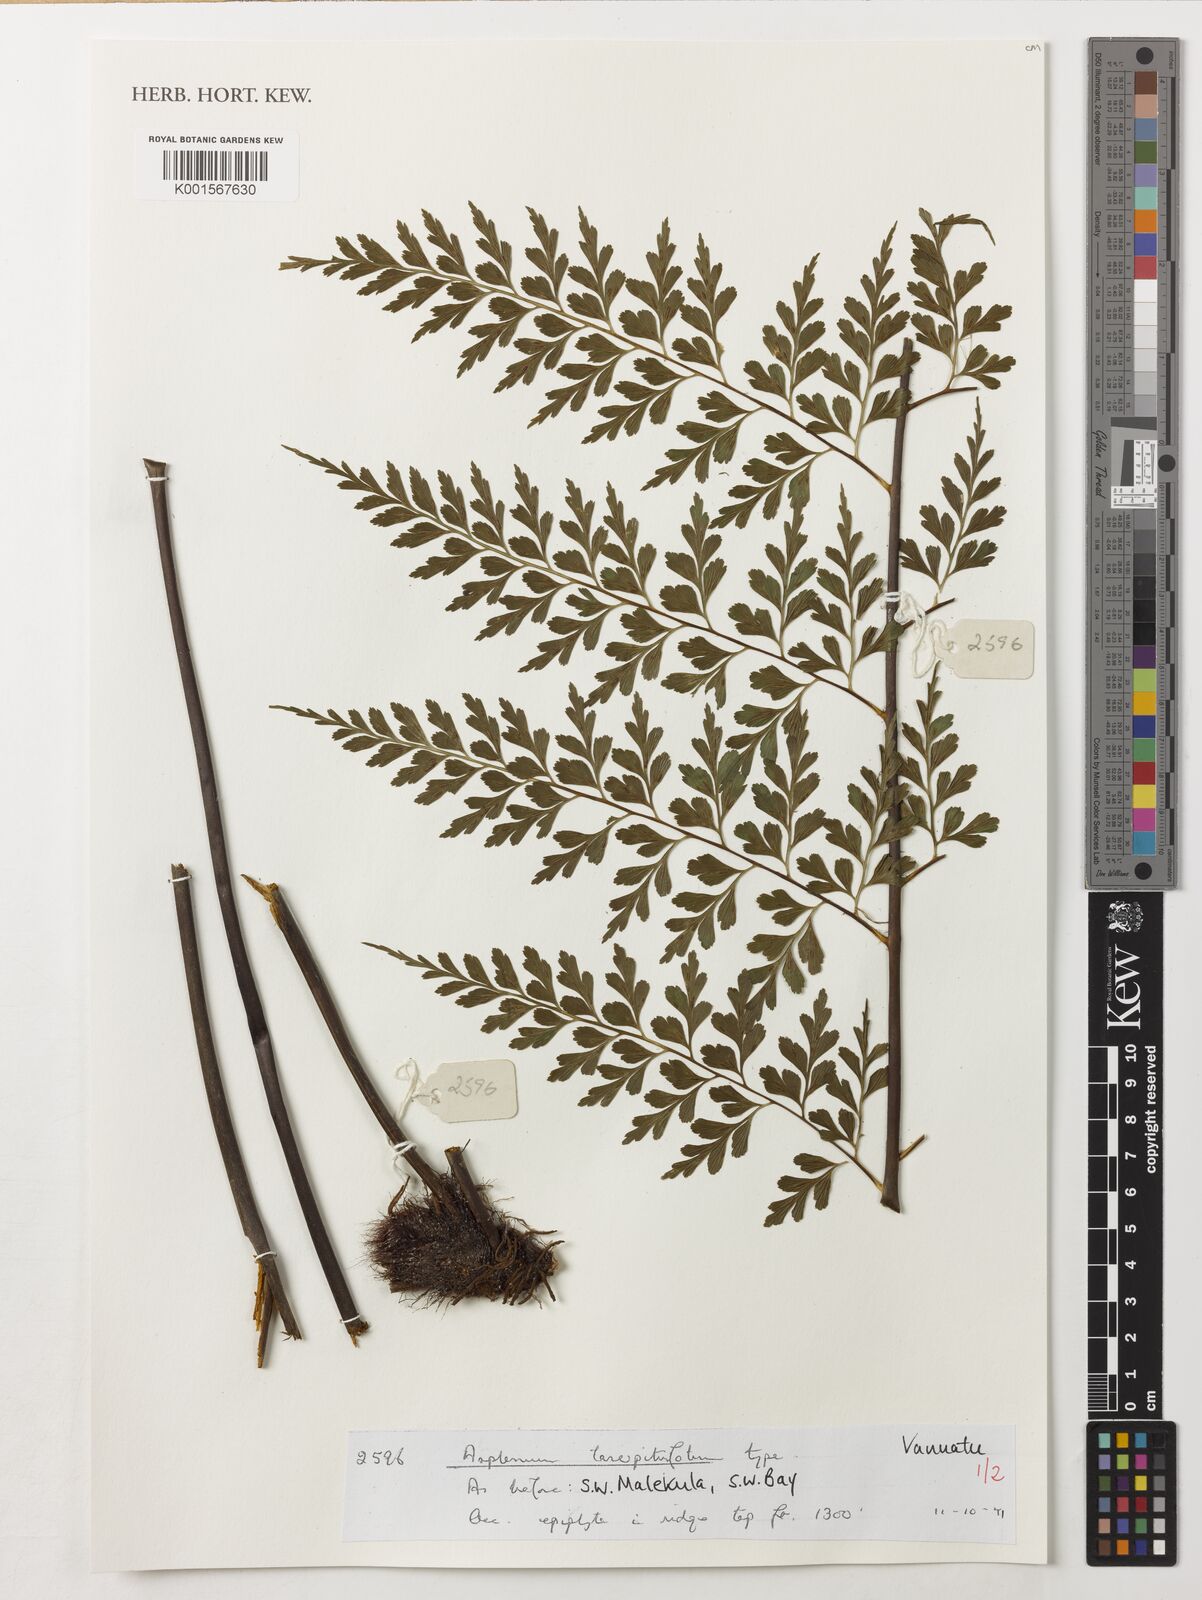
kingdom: Plantae
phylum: Tracheophyta
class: Polypodiopsida
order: Polypodiales
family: Aspleniaceae
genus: Asplenium
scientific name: Asplenium laserpitiifolium
